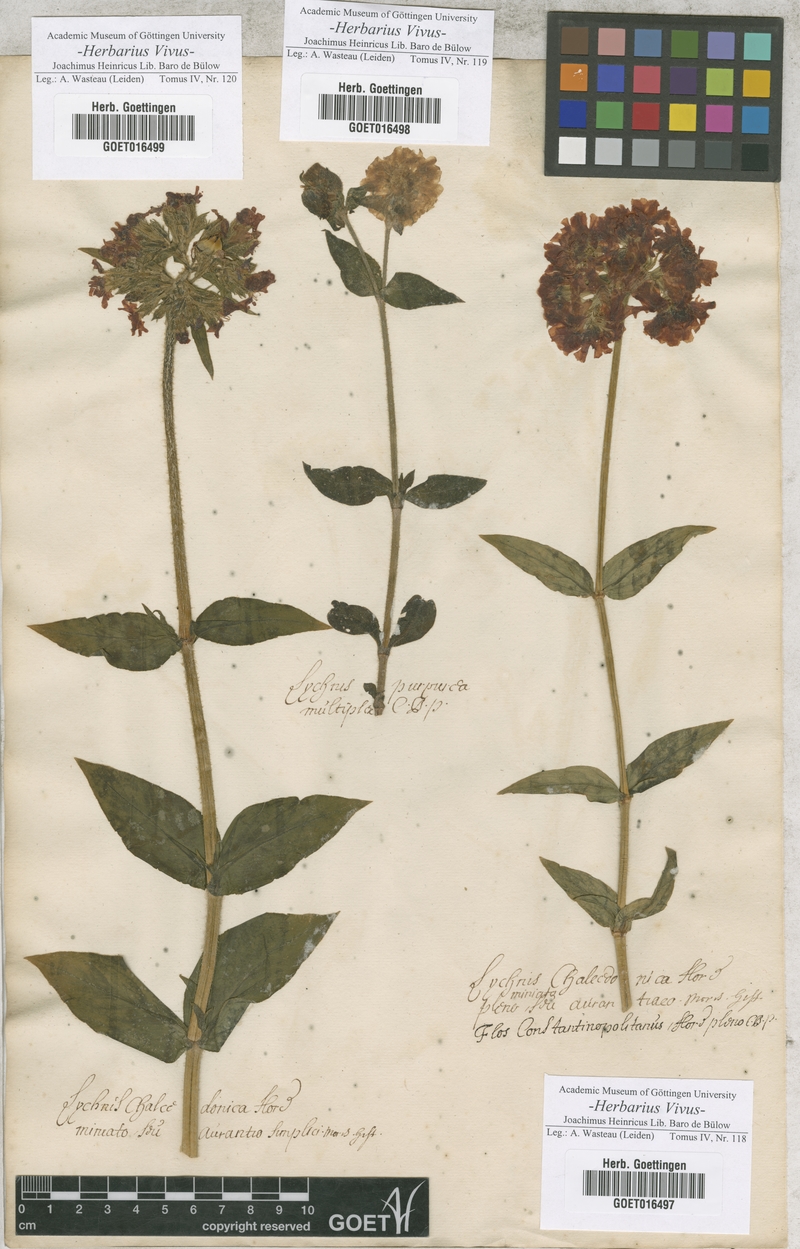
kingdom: Plantae
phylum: Tracheophyta
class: Magnoliopsida
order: Caryophyllales
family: Caryophyllaceae
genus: Silene
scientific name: Silene chalcedonica
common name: Maltese-cross
